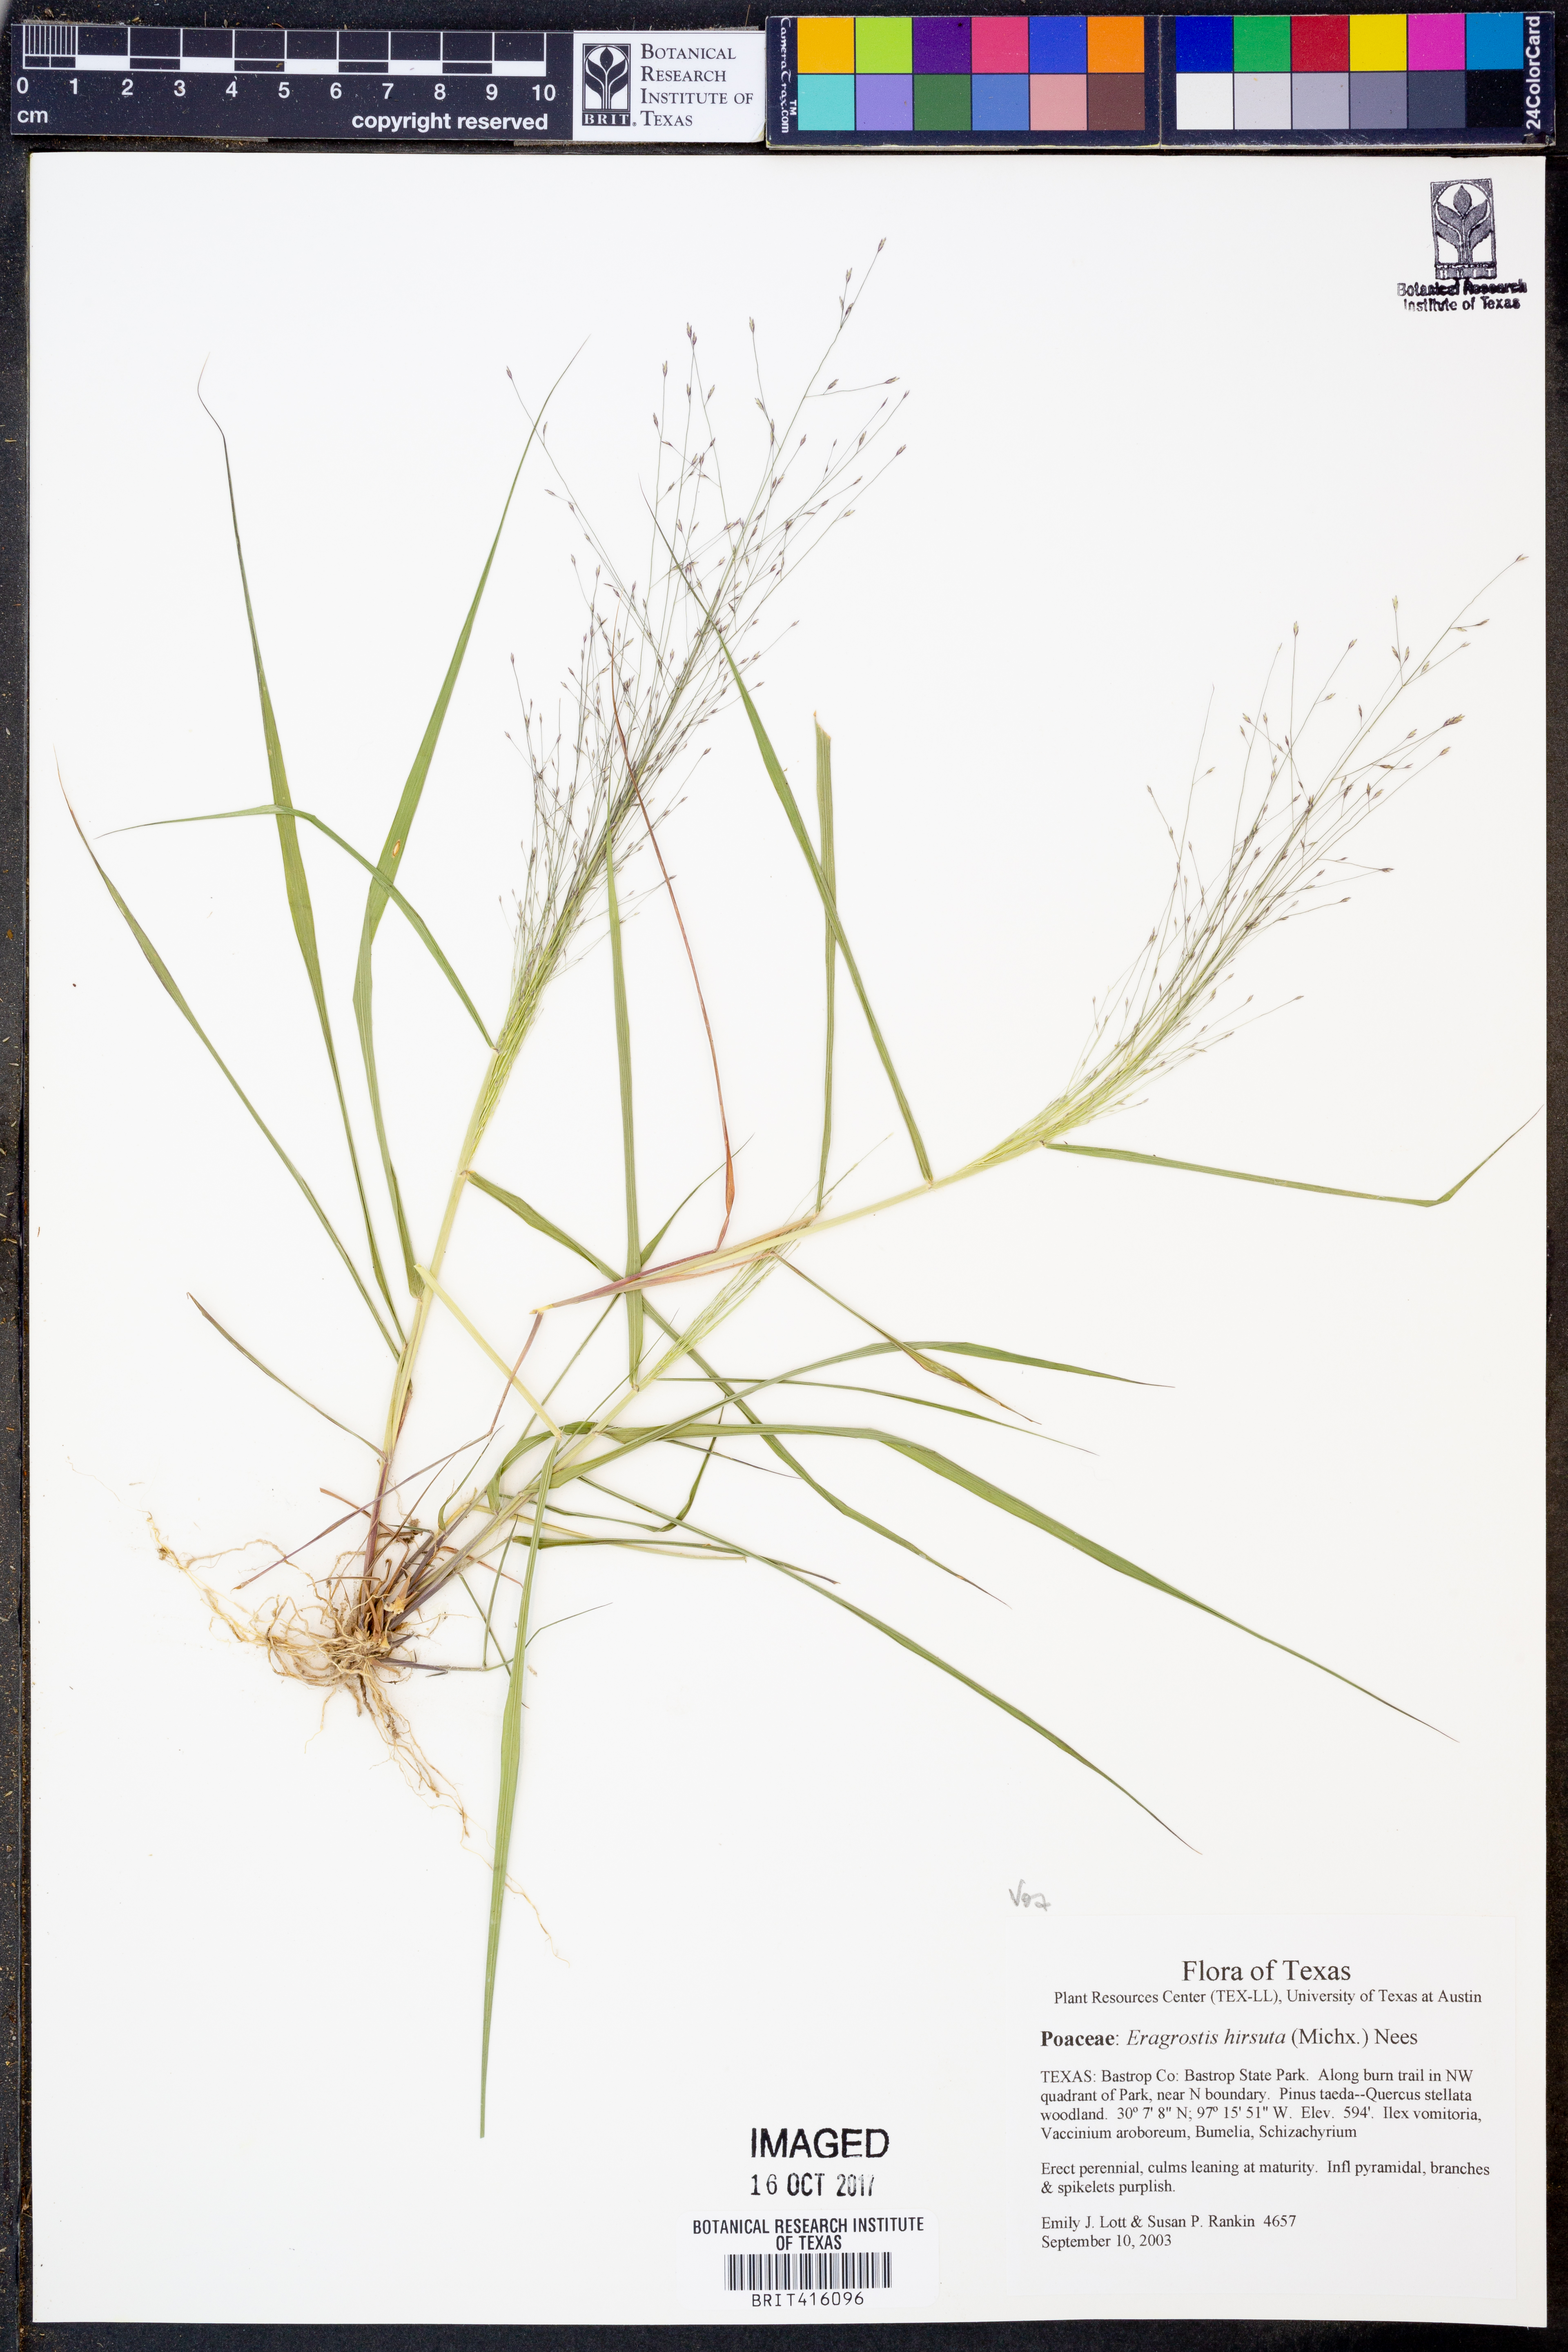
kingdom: Plantae
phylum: Tracheophyta
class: Liliopsida
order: Poales
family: Poaceae
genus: Eragrostis
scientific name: Eragrostis hirsuta
